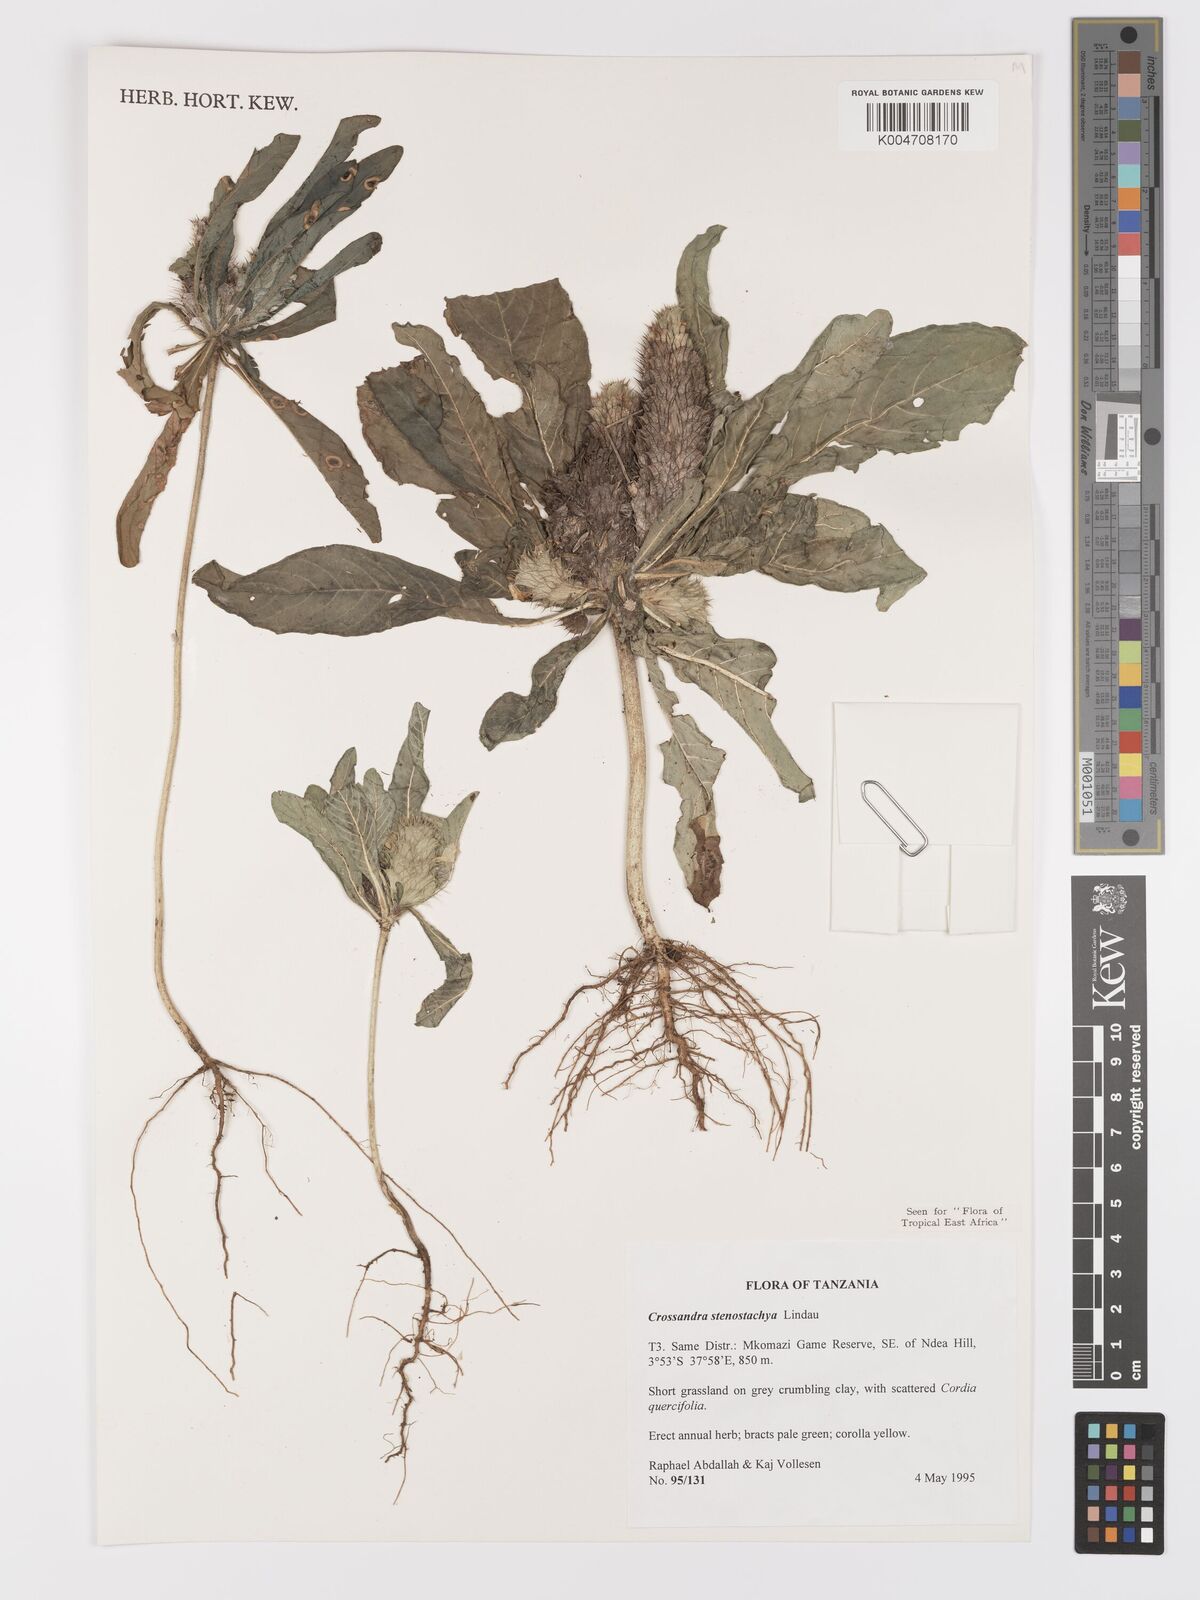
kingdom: Plantae
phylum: Tracheophyta
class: Magnoliopsida
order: Lamiales
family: Acanthaceae
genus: Crossandra
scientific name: Crossandra stenostachya
